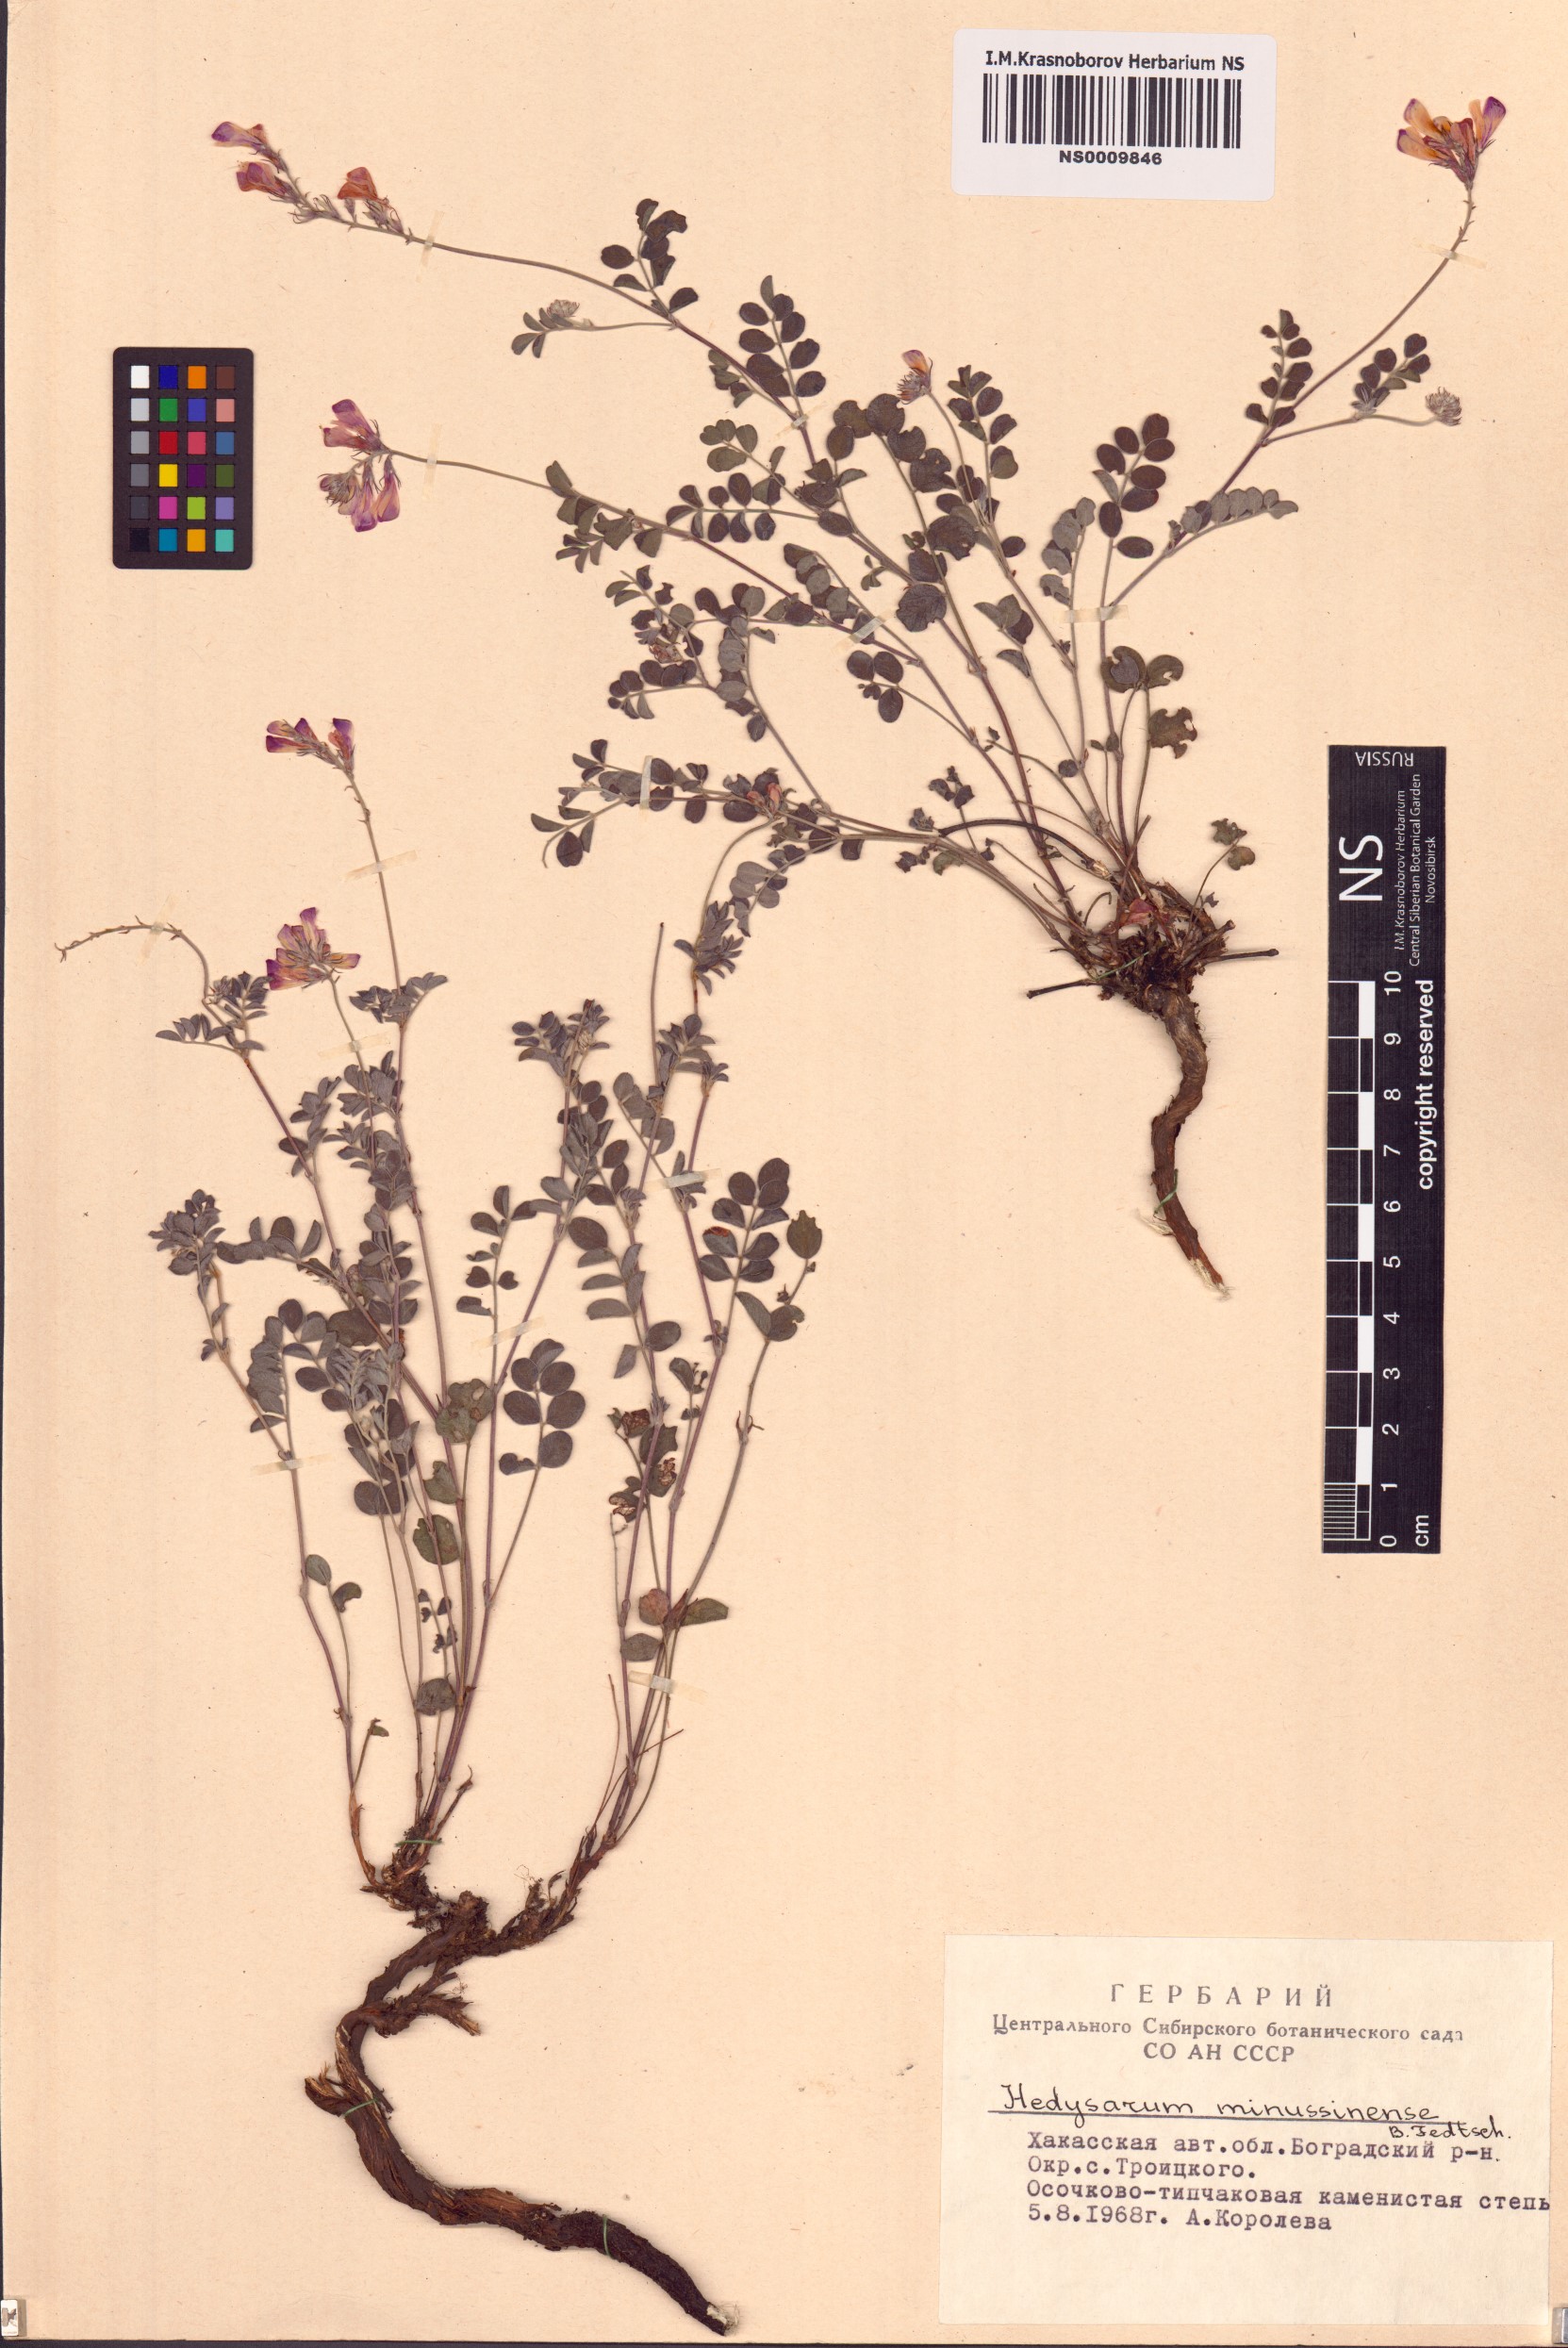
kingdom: Plantae
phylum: Tracheophyta
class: Magnoliopsida
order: Fabales
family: Fabaceae
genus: Hedysarum
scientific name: Hedysarum minussinense
